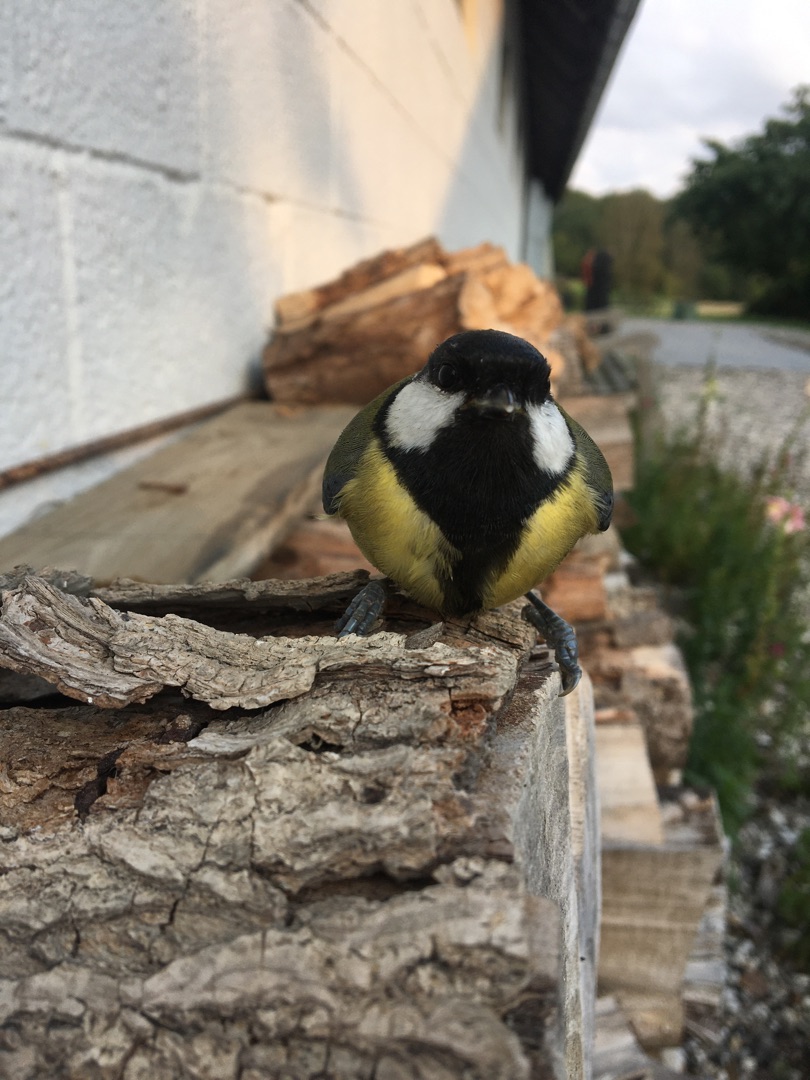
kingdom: Animalia
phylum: Chordata
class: Aves
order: Passeriformes
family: Paridae
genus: Parus
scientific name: Parus major
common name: Musvit
